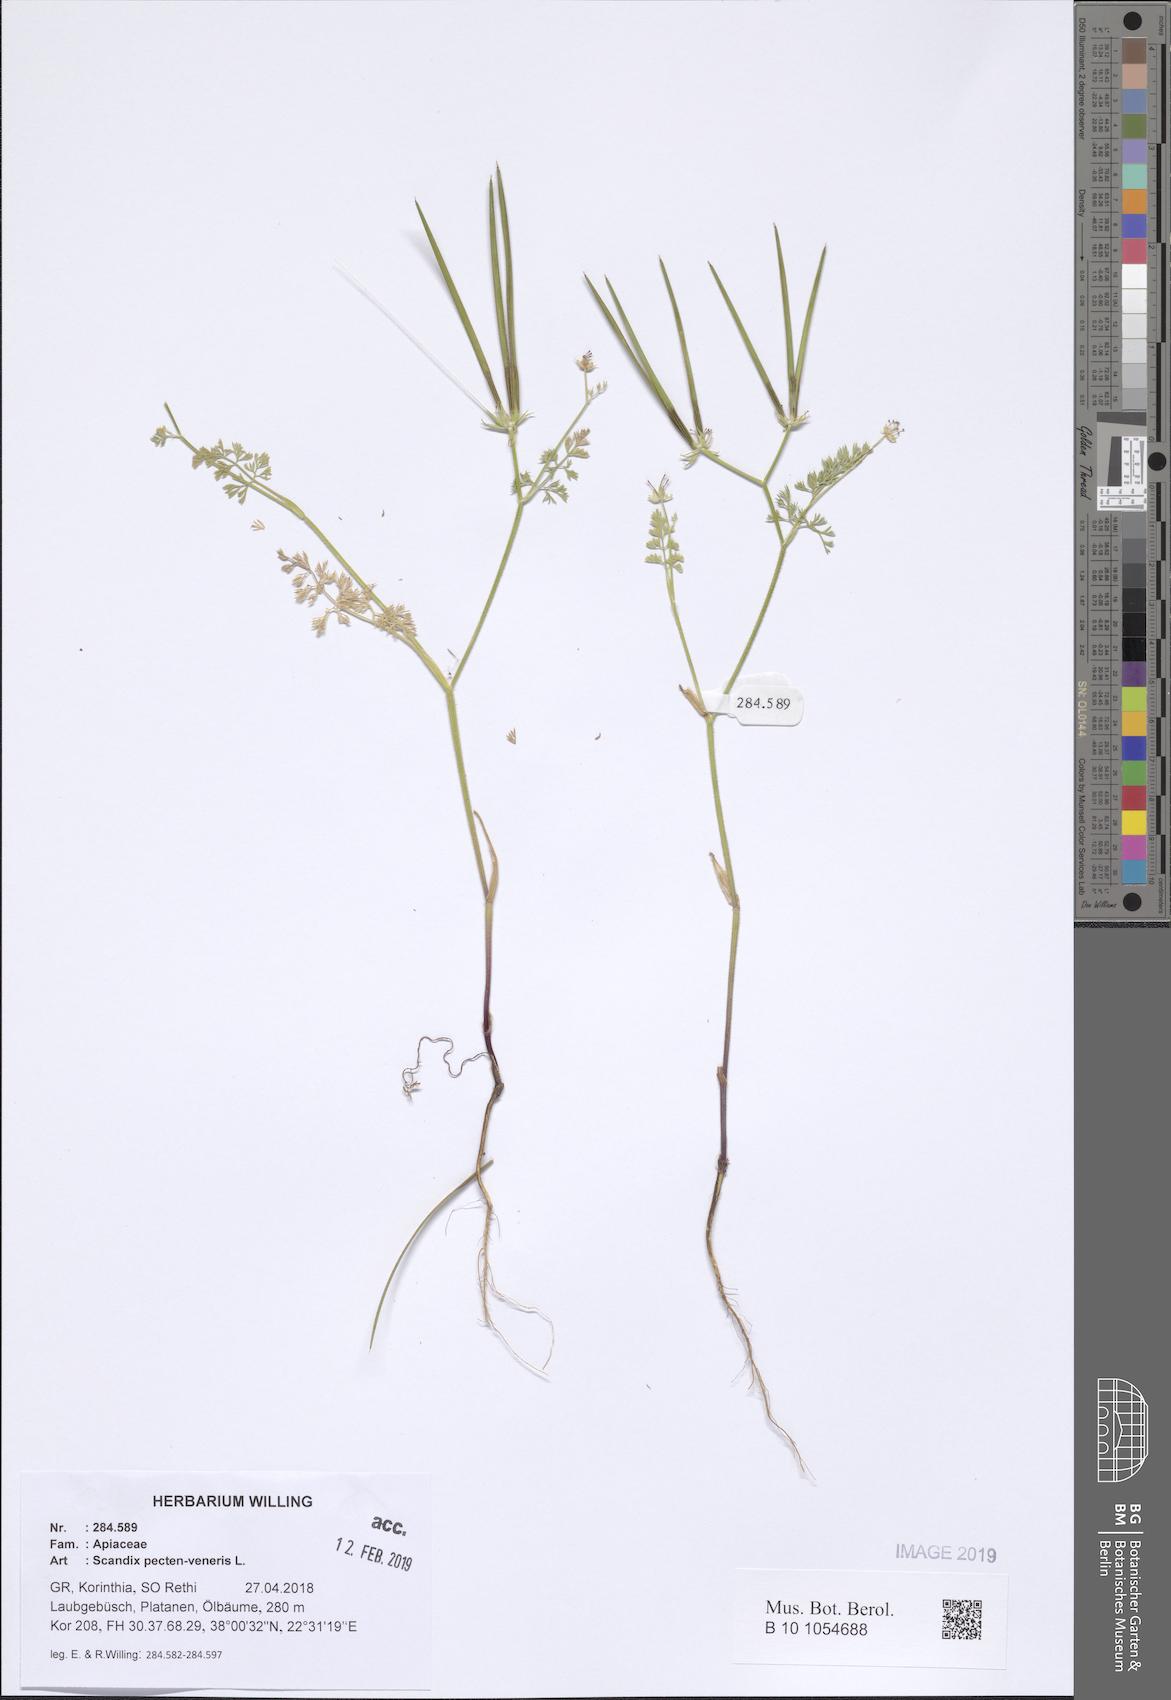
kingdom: Plantae
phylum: Tracheophyta
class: Magnoliopsida
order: Apiales
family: Apiaceae
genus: Scandix
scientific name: Scandix pecten-veneris
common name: Shepherd's-needle
